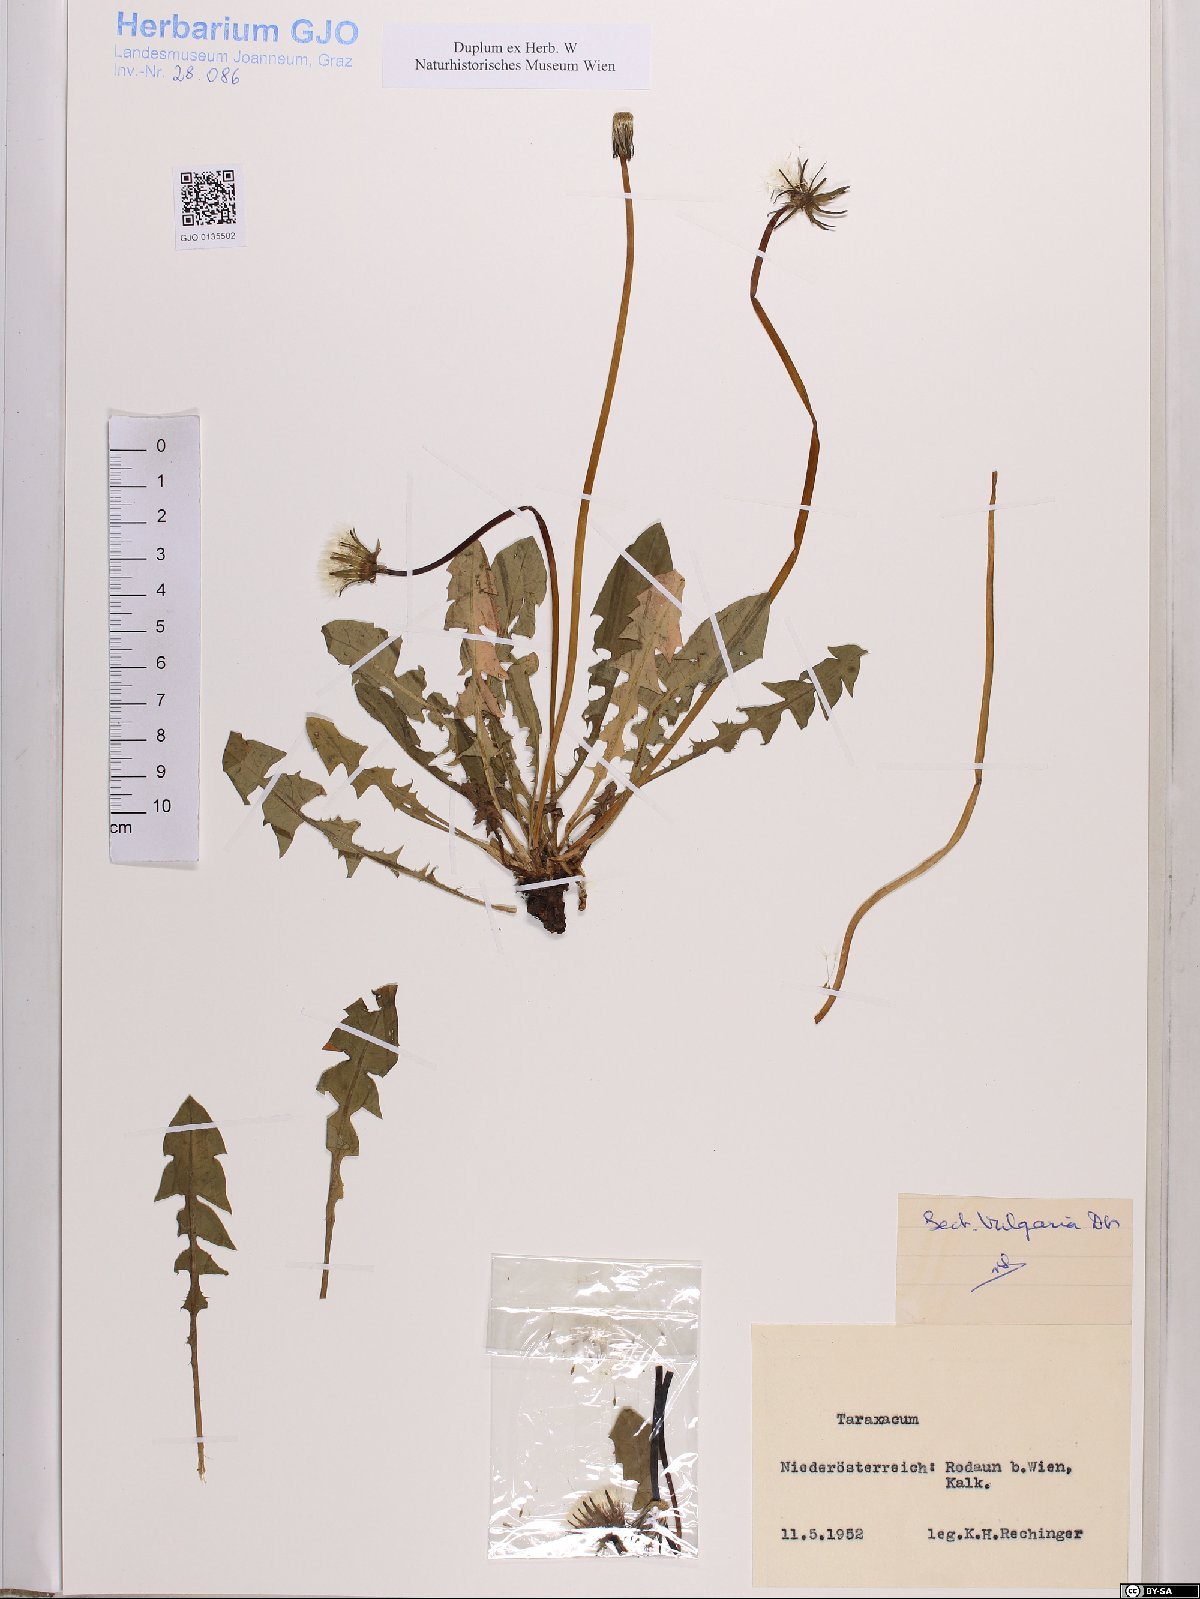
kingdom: Plantae
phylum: Tracheophyta
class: Magnoliopsida
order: Asterales
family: Asteraceae
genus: Taraxacum
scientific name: Taraxacum officinale
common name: Common dandelion
